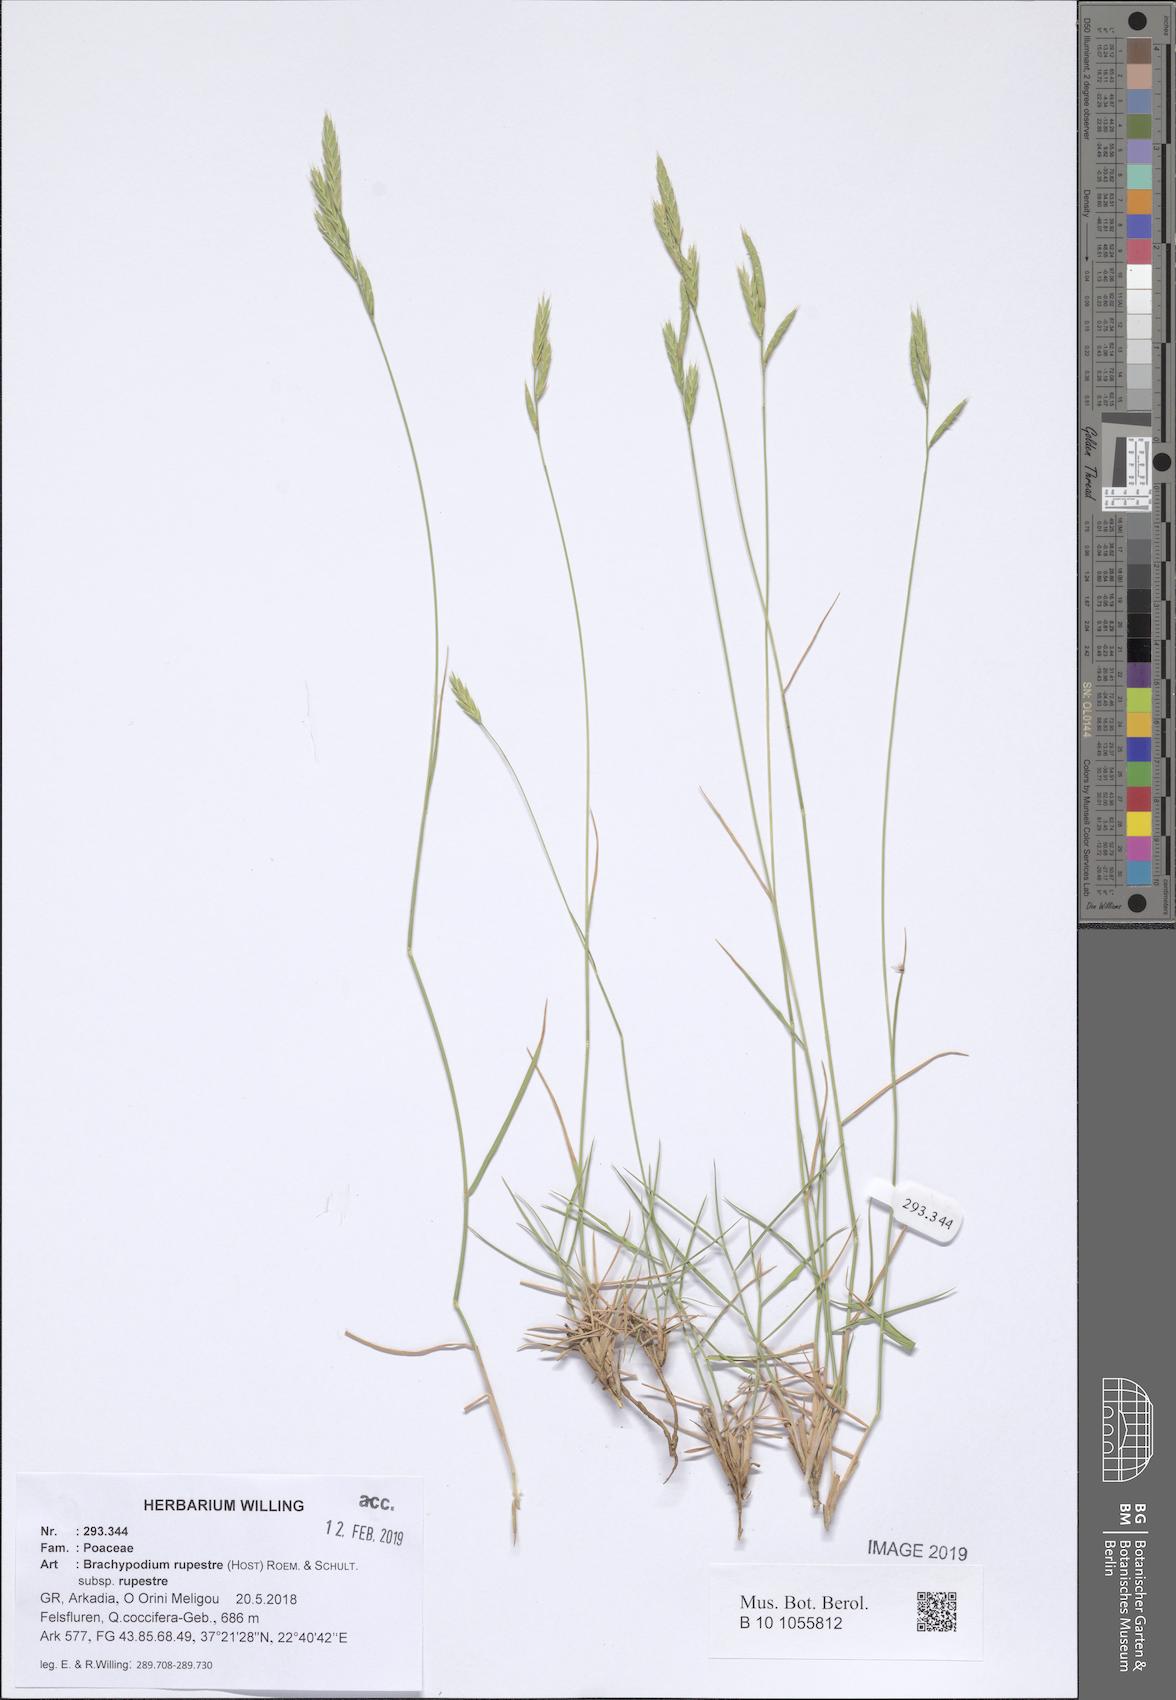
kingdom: Plantae
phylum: Tracheophyta
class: Liliopsida
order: Poales
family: Poaceae
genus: Brachypodium
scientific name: Brachypodium pinnatum
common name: Tor grass
